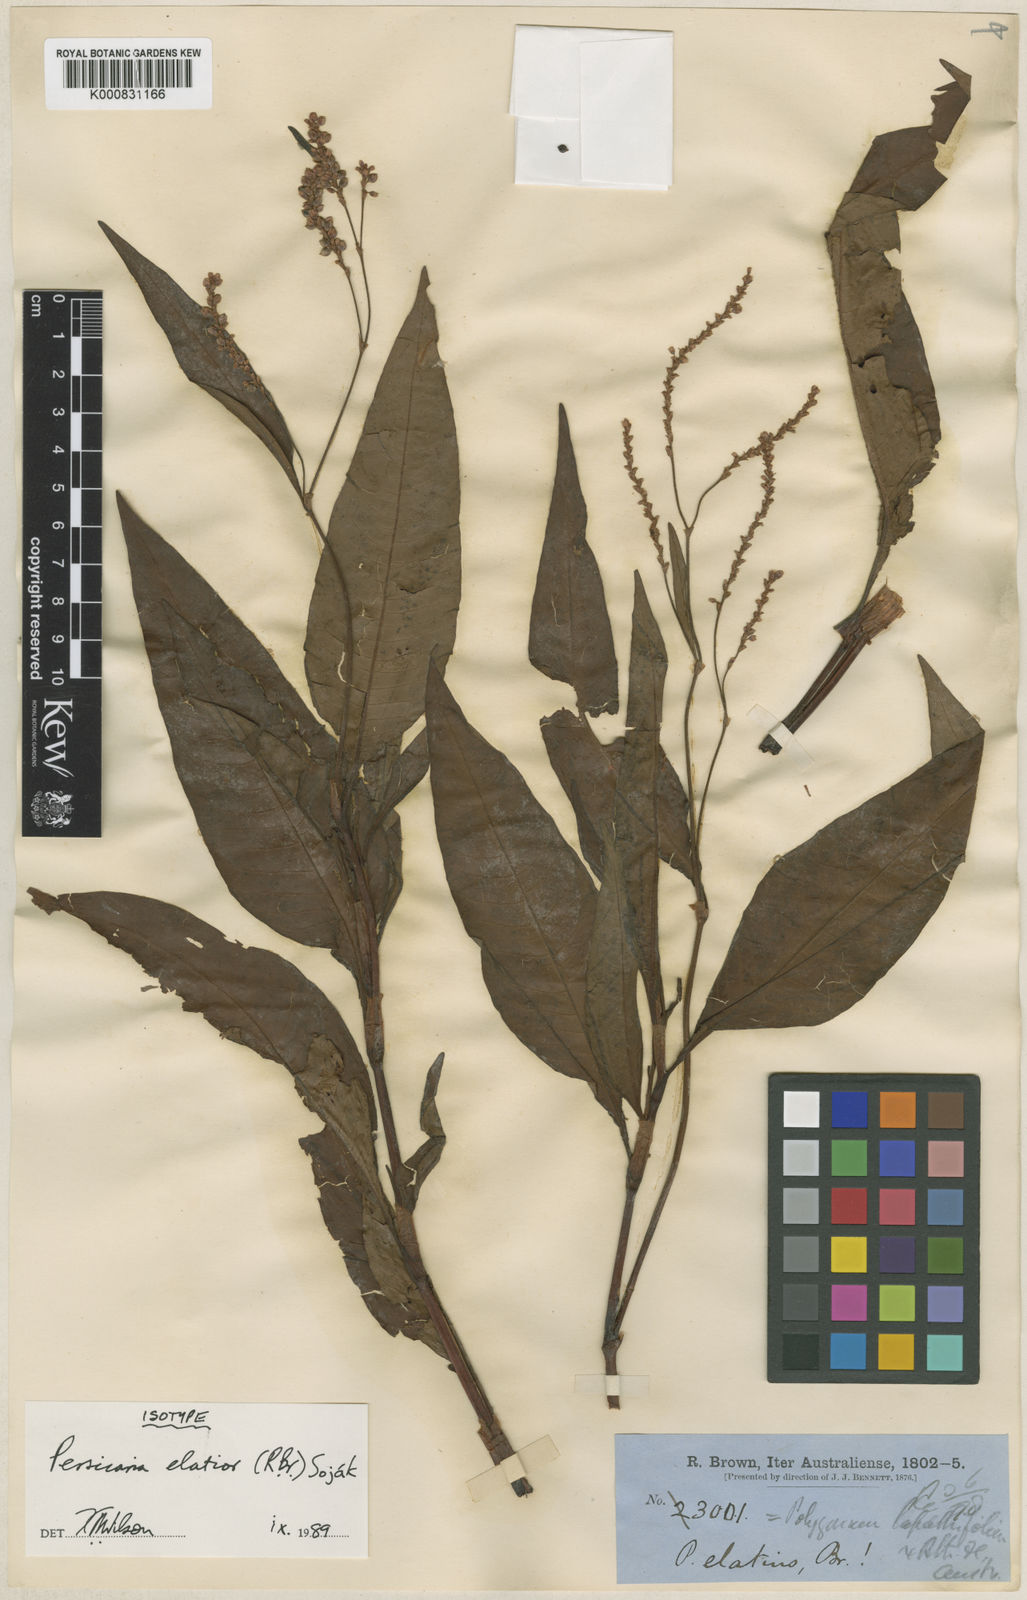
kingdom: Plantae
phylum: Tracheophyta
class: Magnoliopsida
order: Caryophyllales
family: Polygonaceae
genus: Persicaria
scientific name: Persicaria
